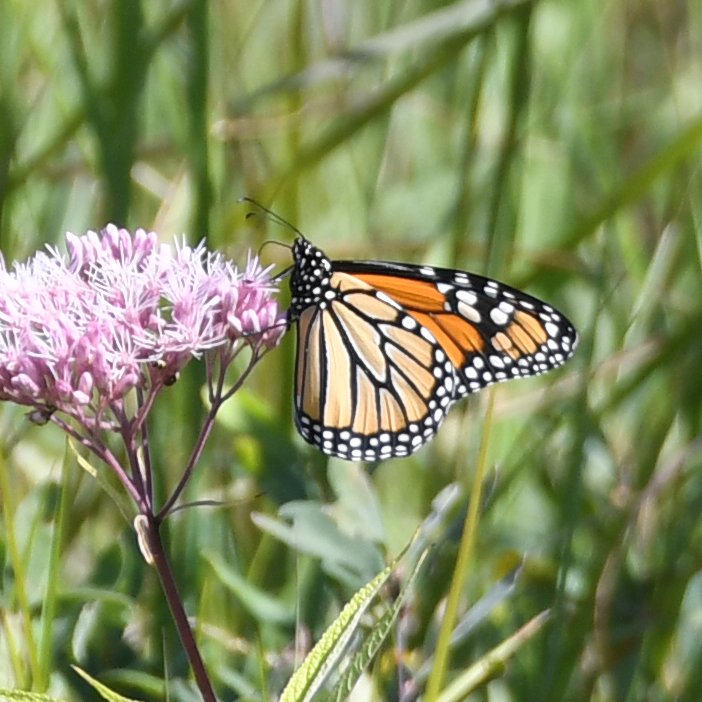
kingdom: Animalia
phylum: Arthropoda
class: Insecta
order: Lepidoptera
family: Nymphalidae
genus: Danaus
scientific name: Danaus plexippus
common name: Monarch
